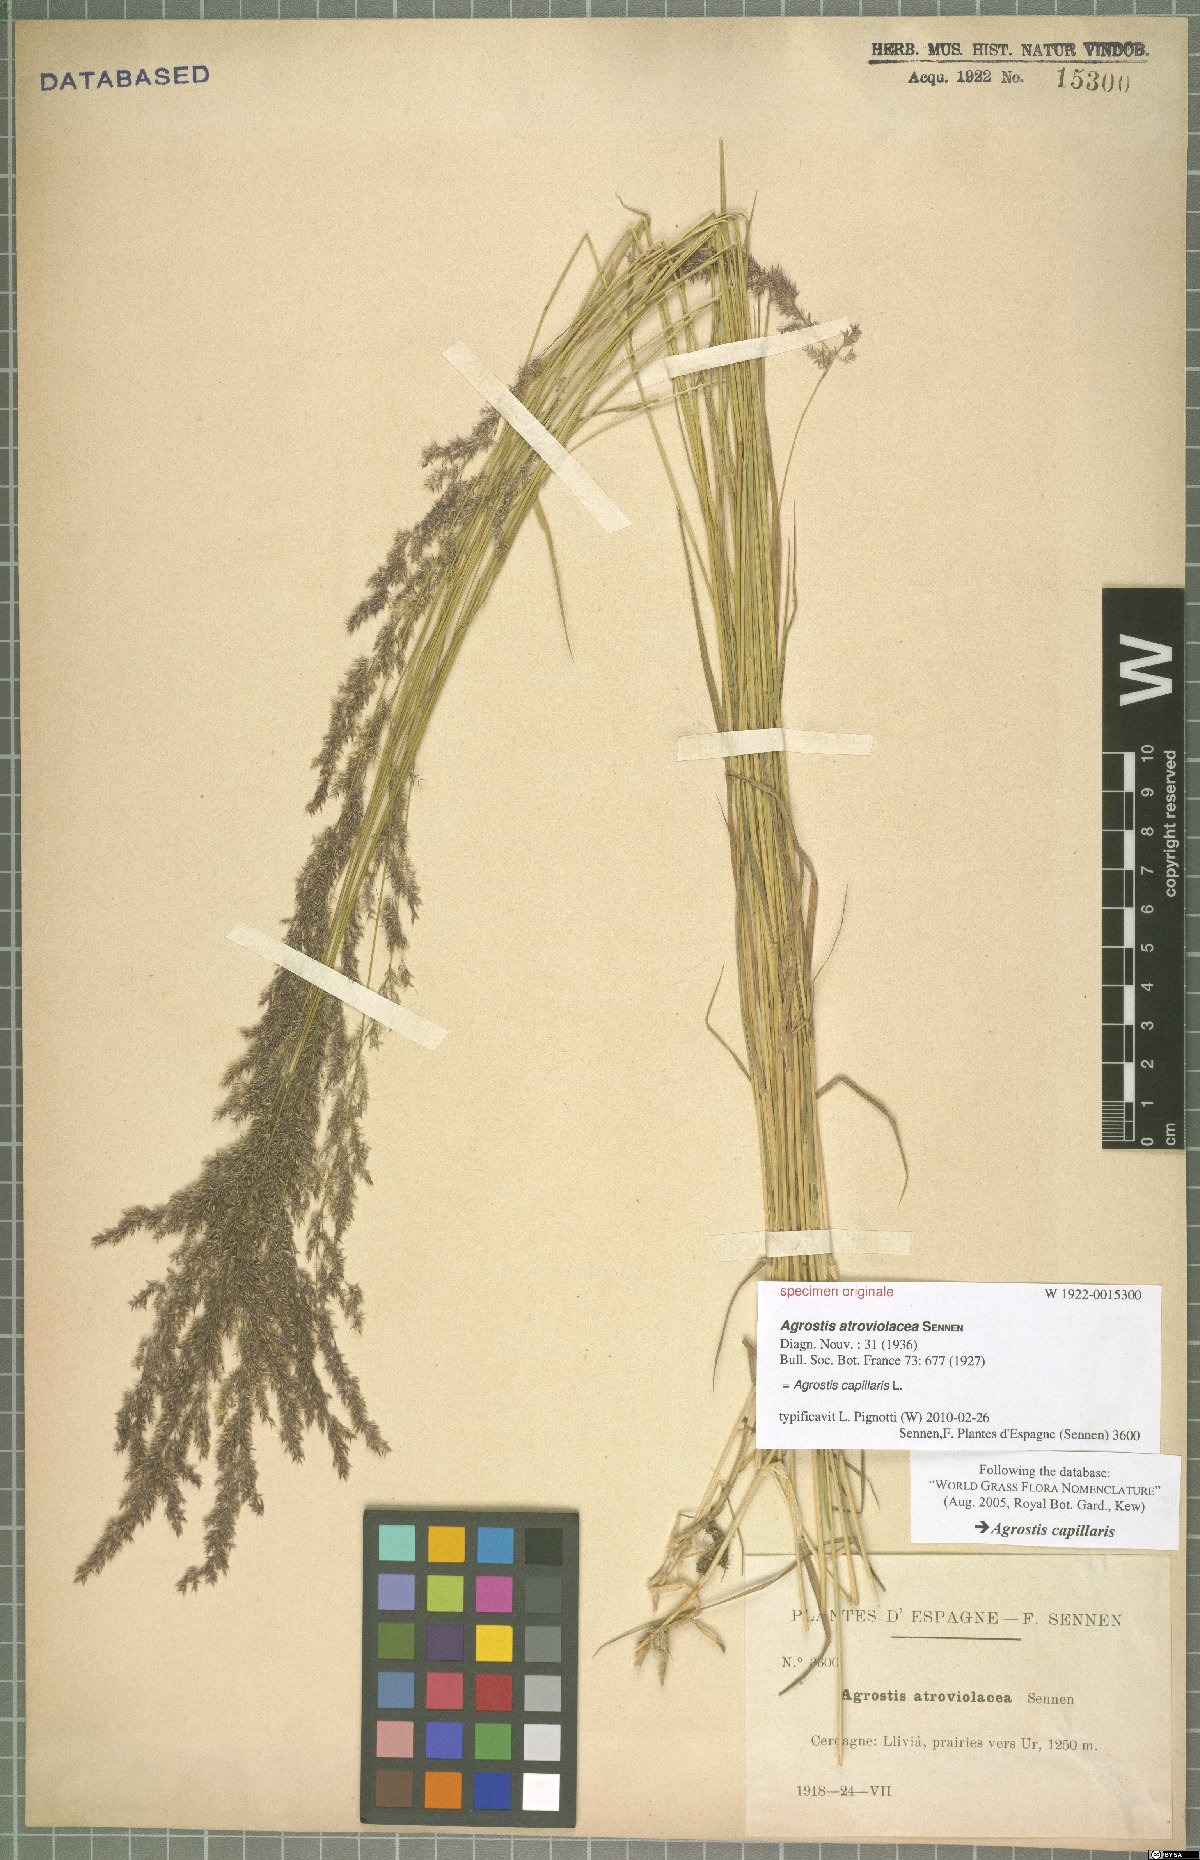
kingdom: Plantae
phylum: Tracheophyta
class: Liliopsida
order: Poales
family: Poaceae
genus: Agrostis
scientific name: Agrostis capillaris
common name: Colonial bentgrass
